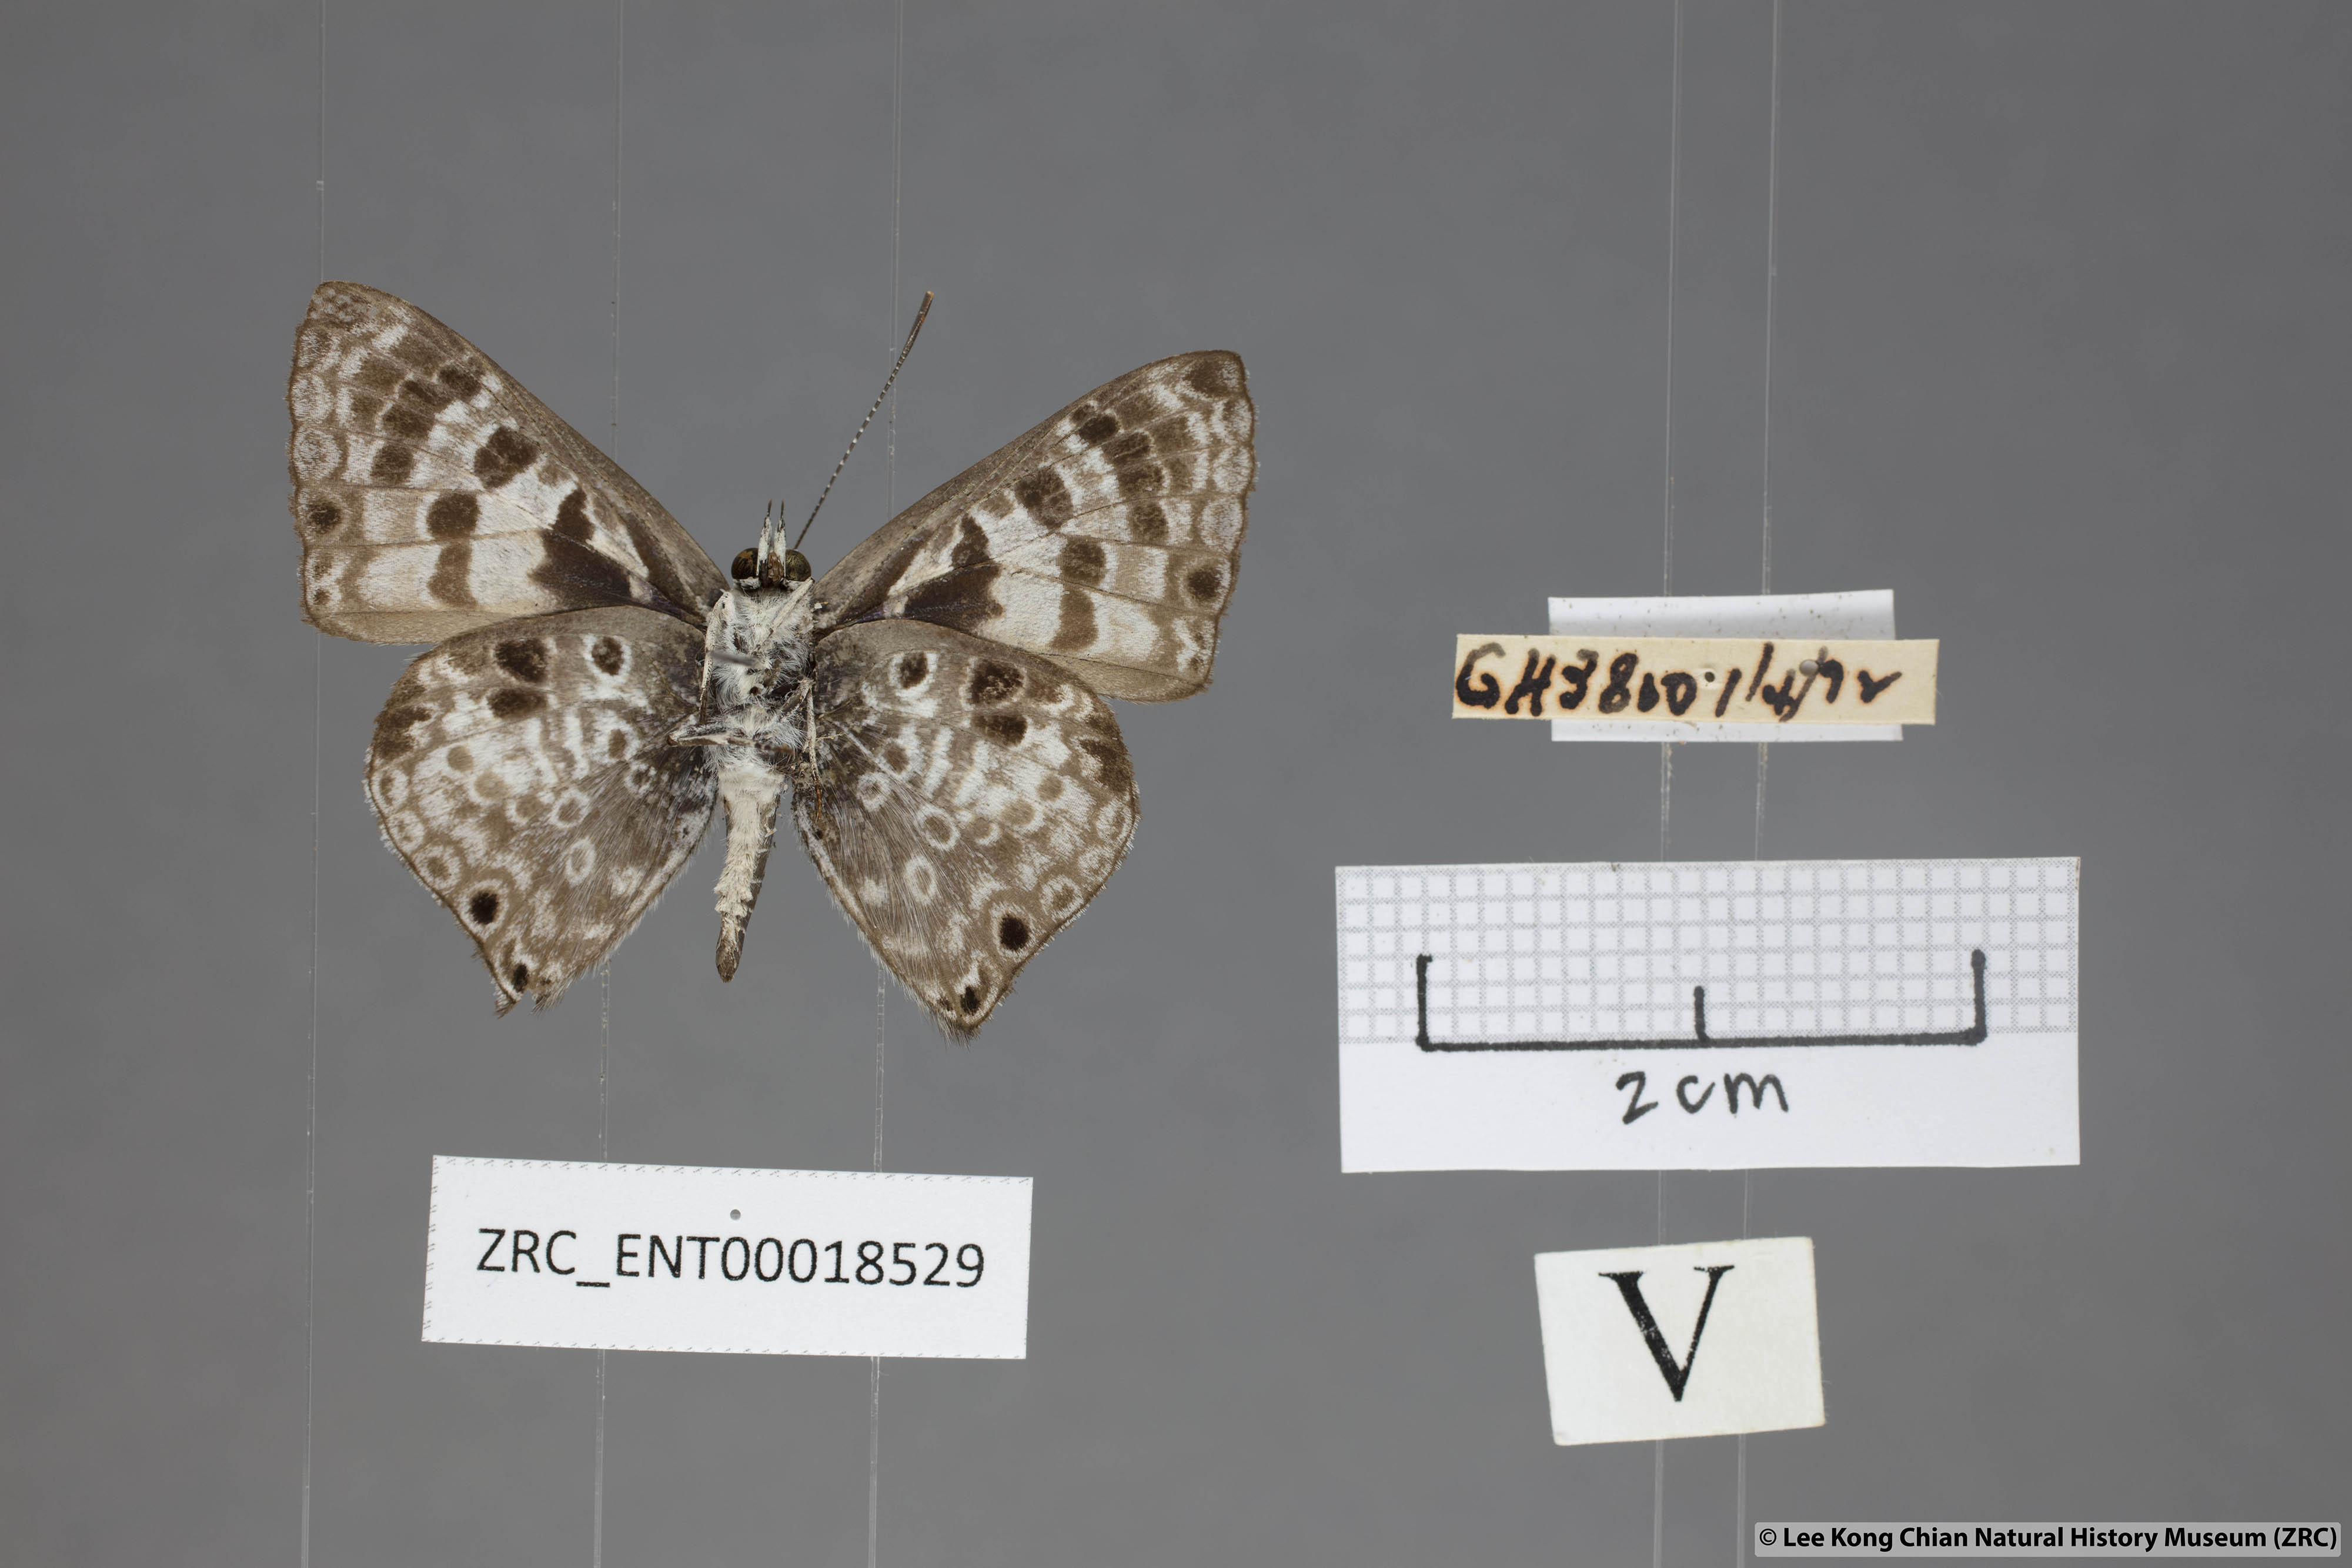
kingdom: Animalia
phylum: Arthropoda
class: Insecta
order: Lepidoptera
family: Lycaenidae
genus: Niphanda
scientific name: Niphanda tessellata
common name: Large pointed pierrot
